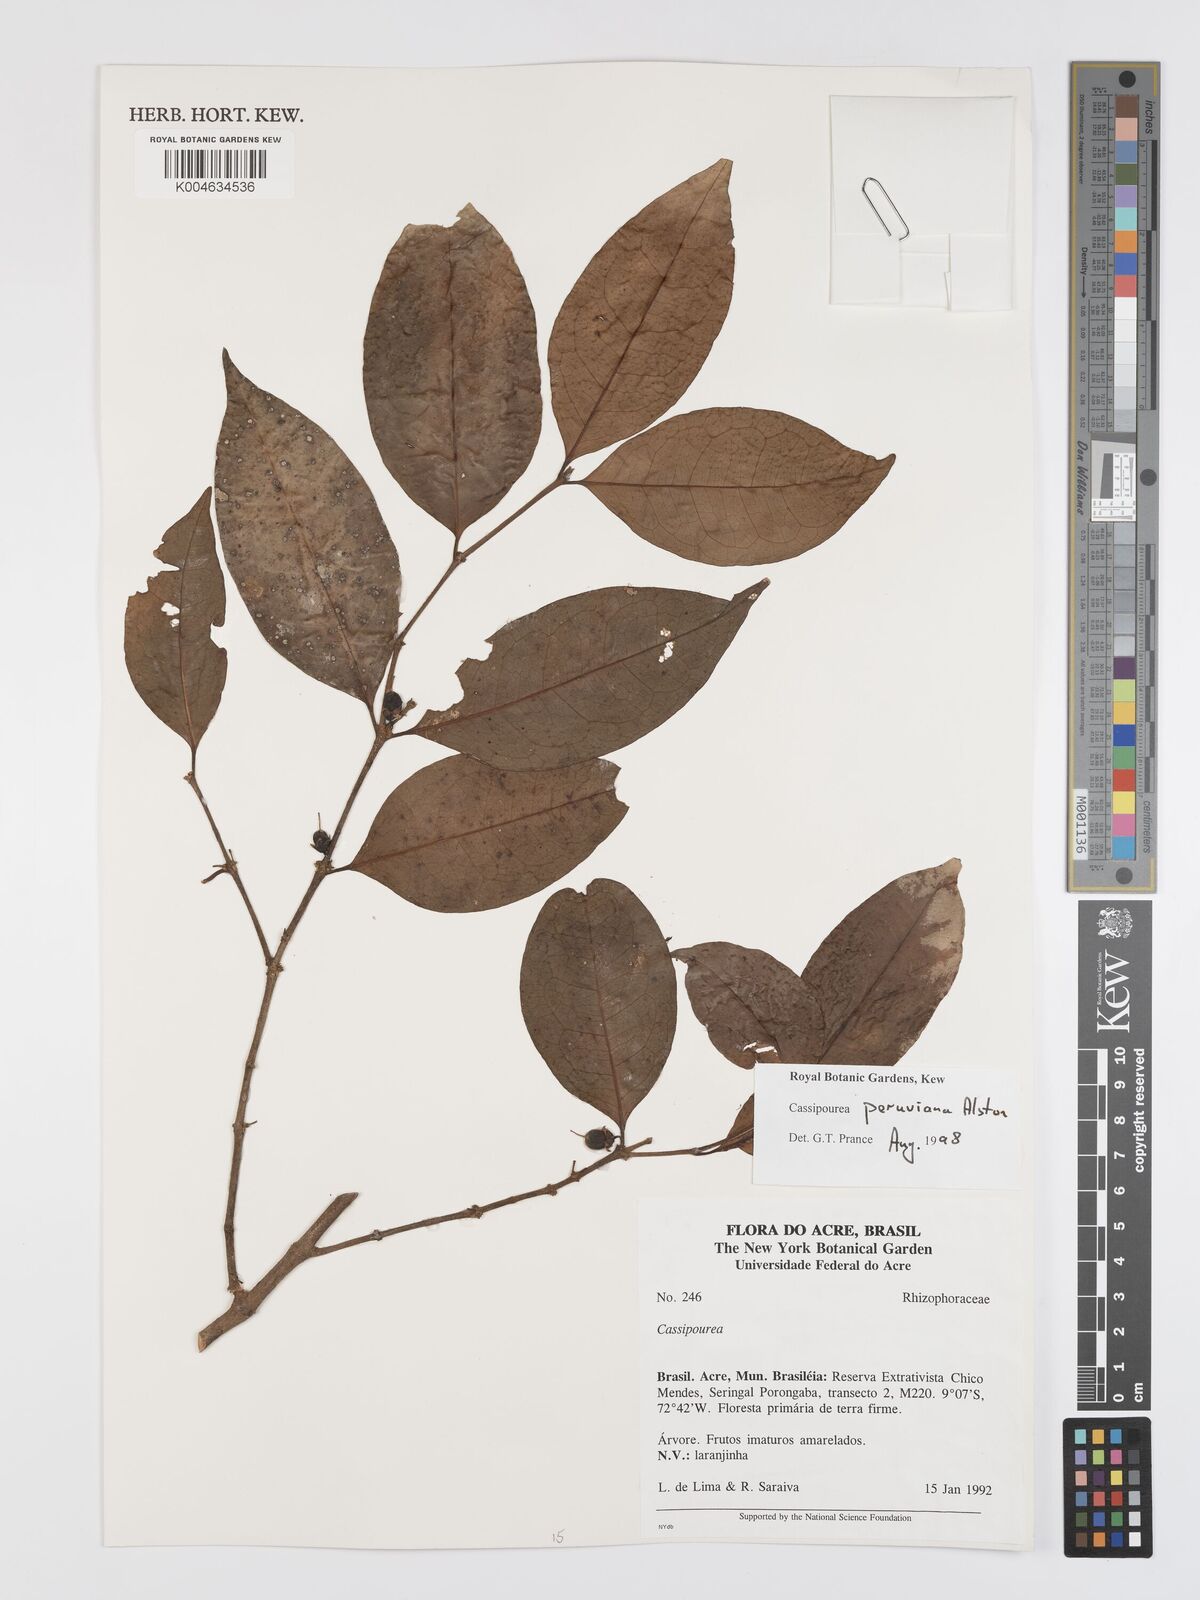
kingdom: Plantae
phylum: Tracheophyta
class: Magnoliopsida
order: Malpighiales
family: Rhizophoraceae
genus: Cassipourea
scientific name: Cassipourea peruviana
